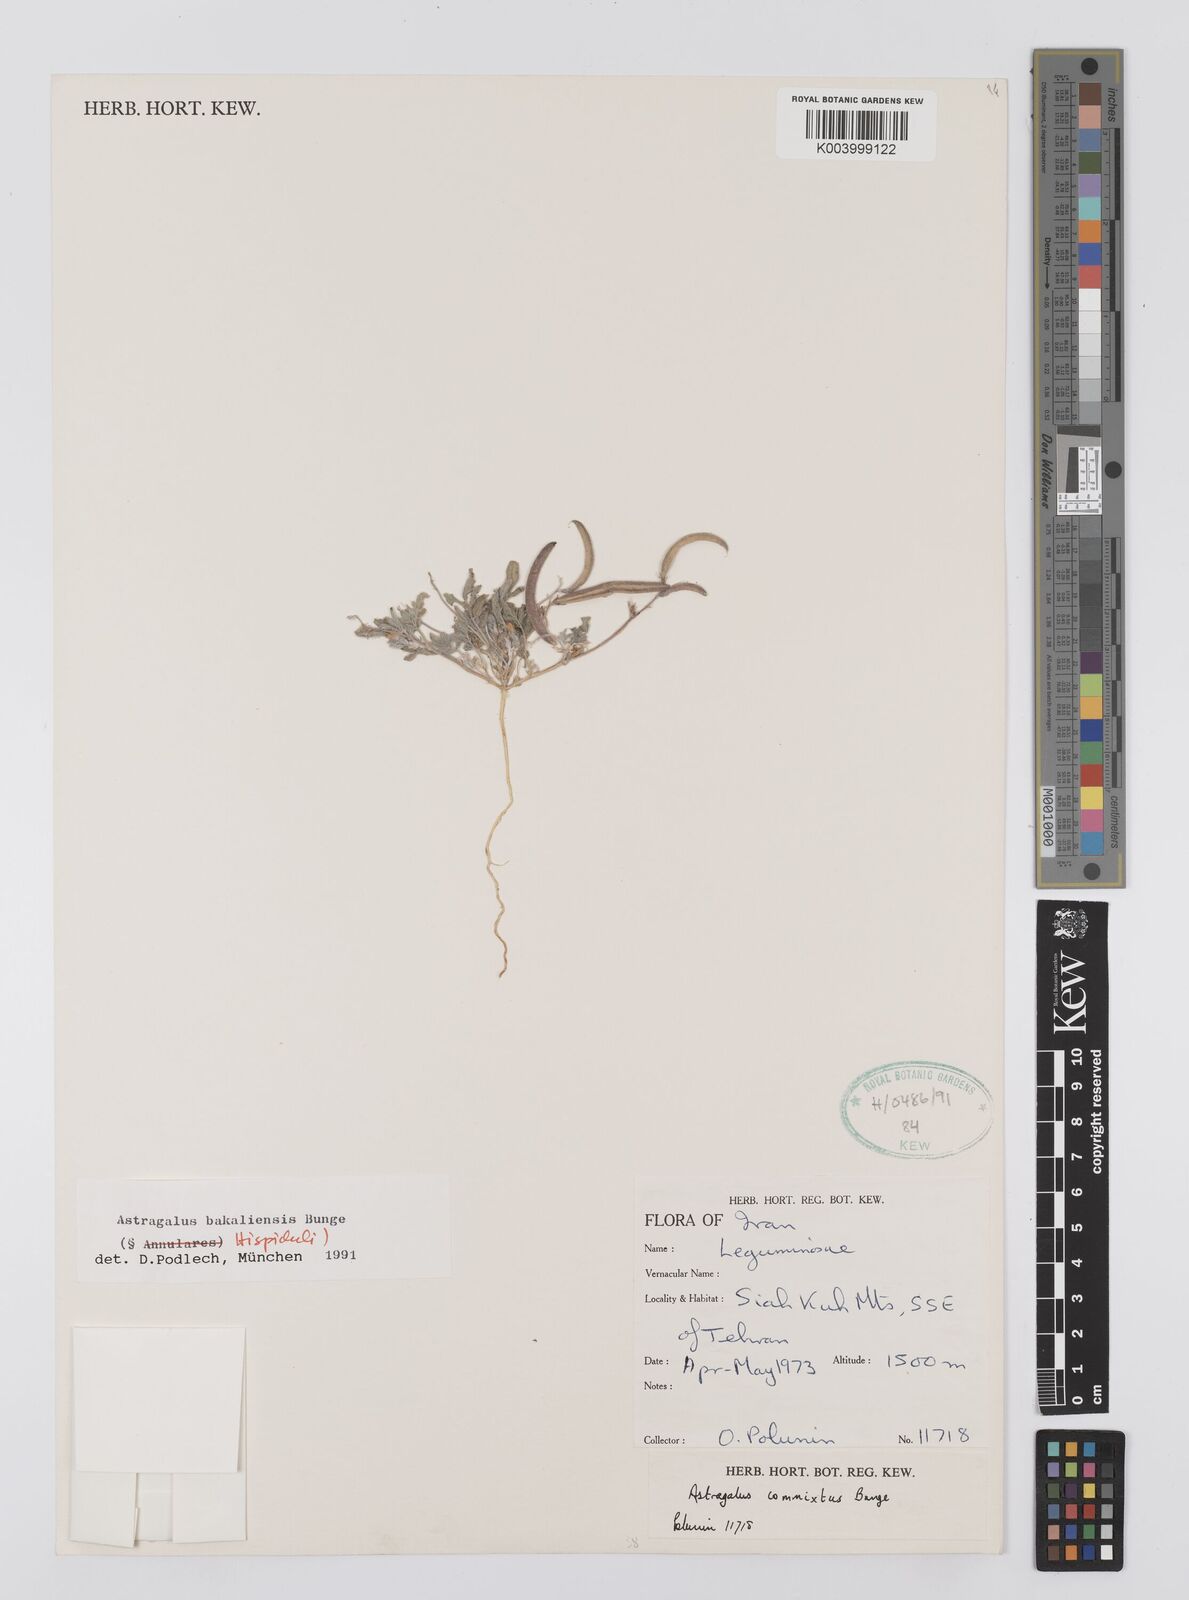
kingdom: Plantae
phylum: Tracheophyta
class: Magnoliopsida
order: Fabales
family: Fabaceae
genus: Astragalus
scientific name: Astragalus bakaliensis
